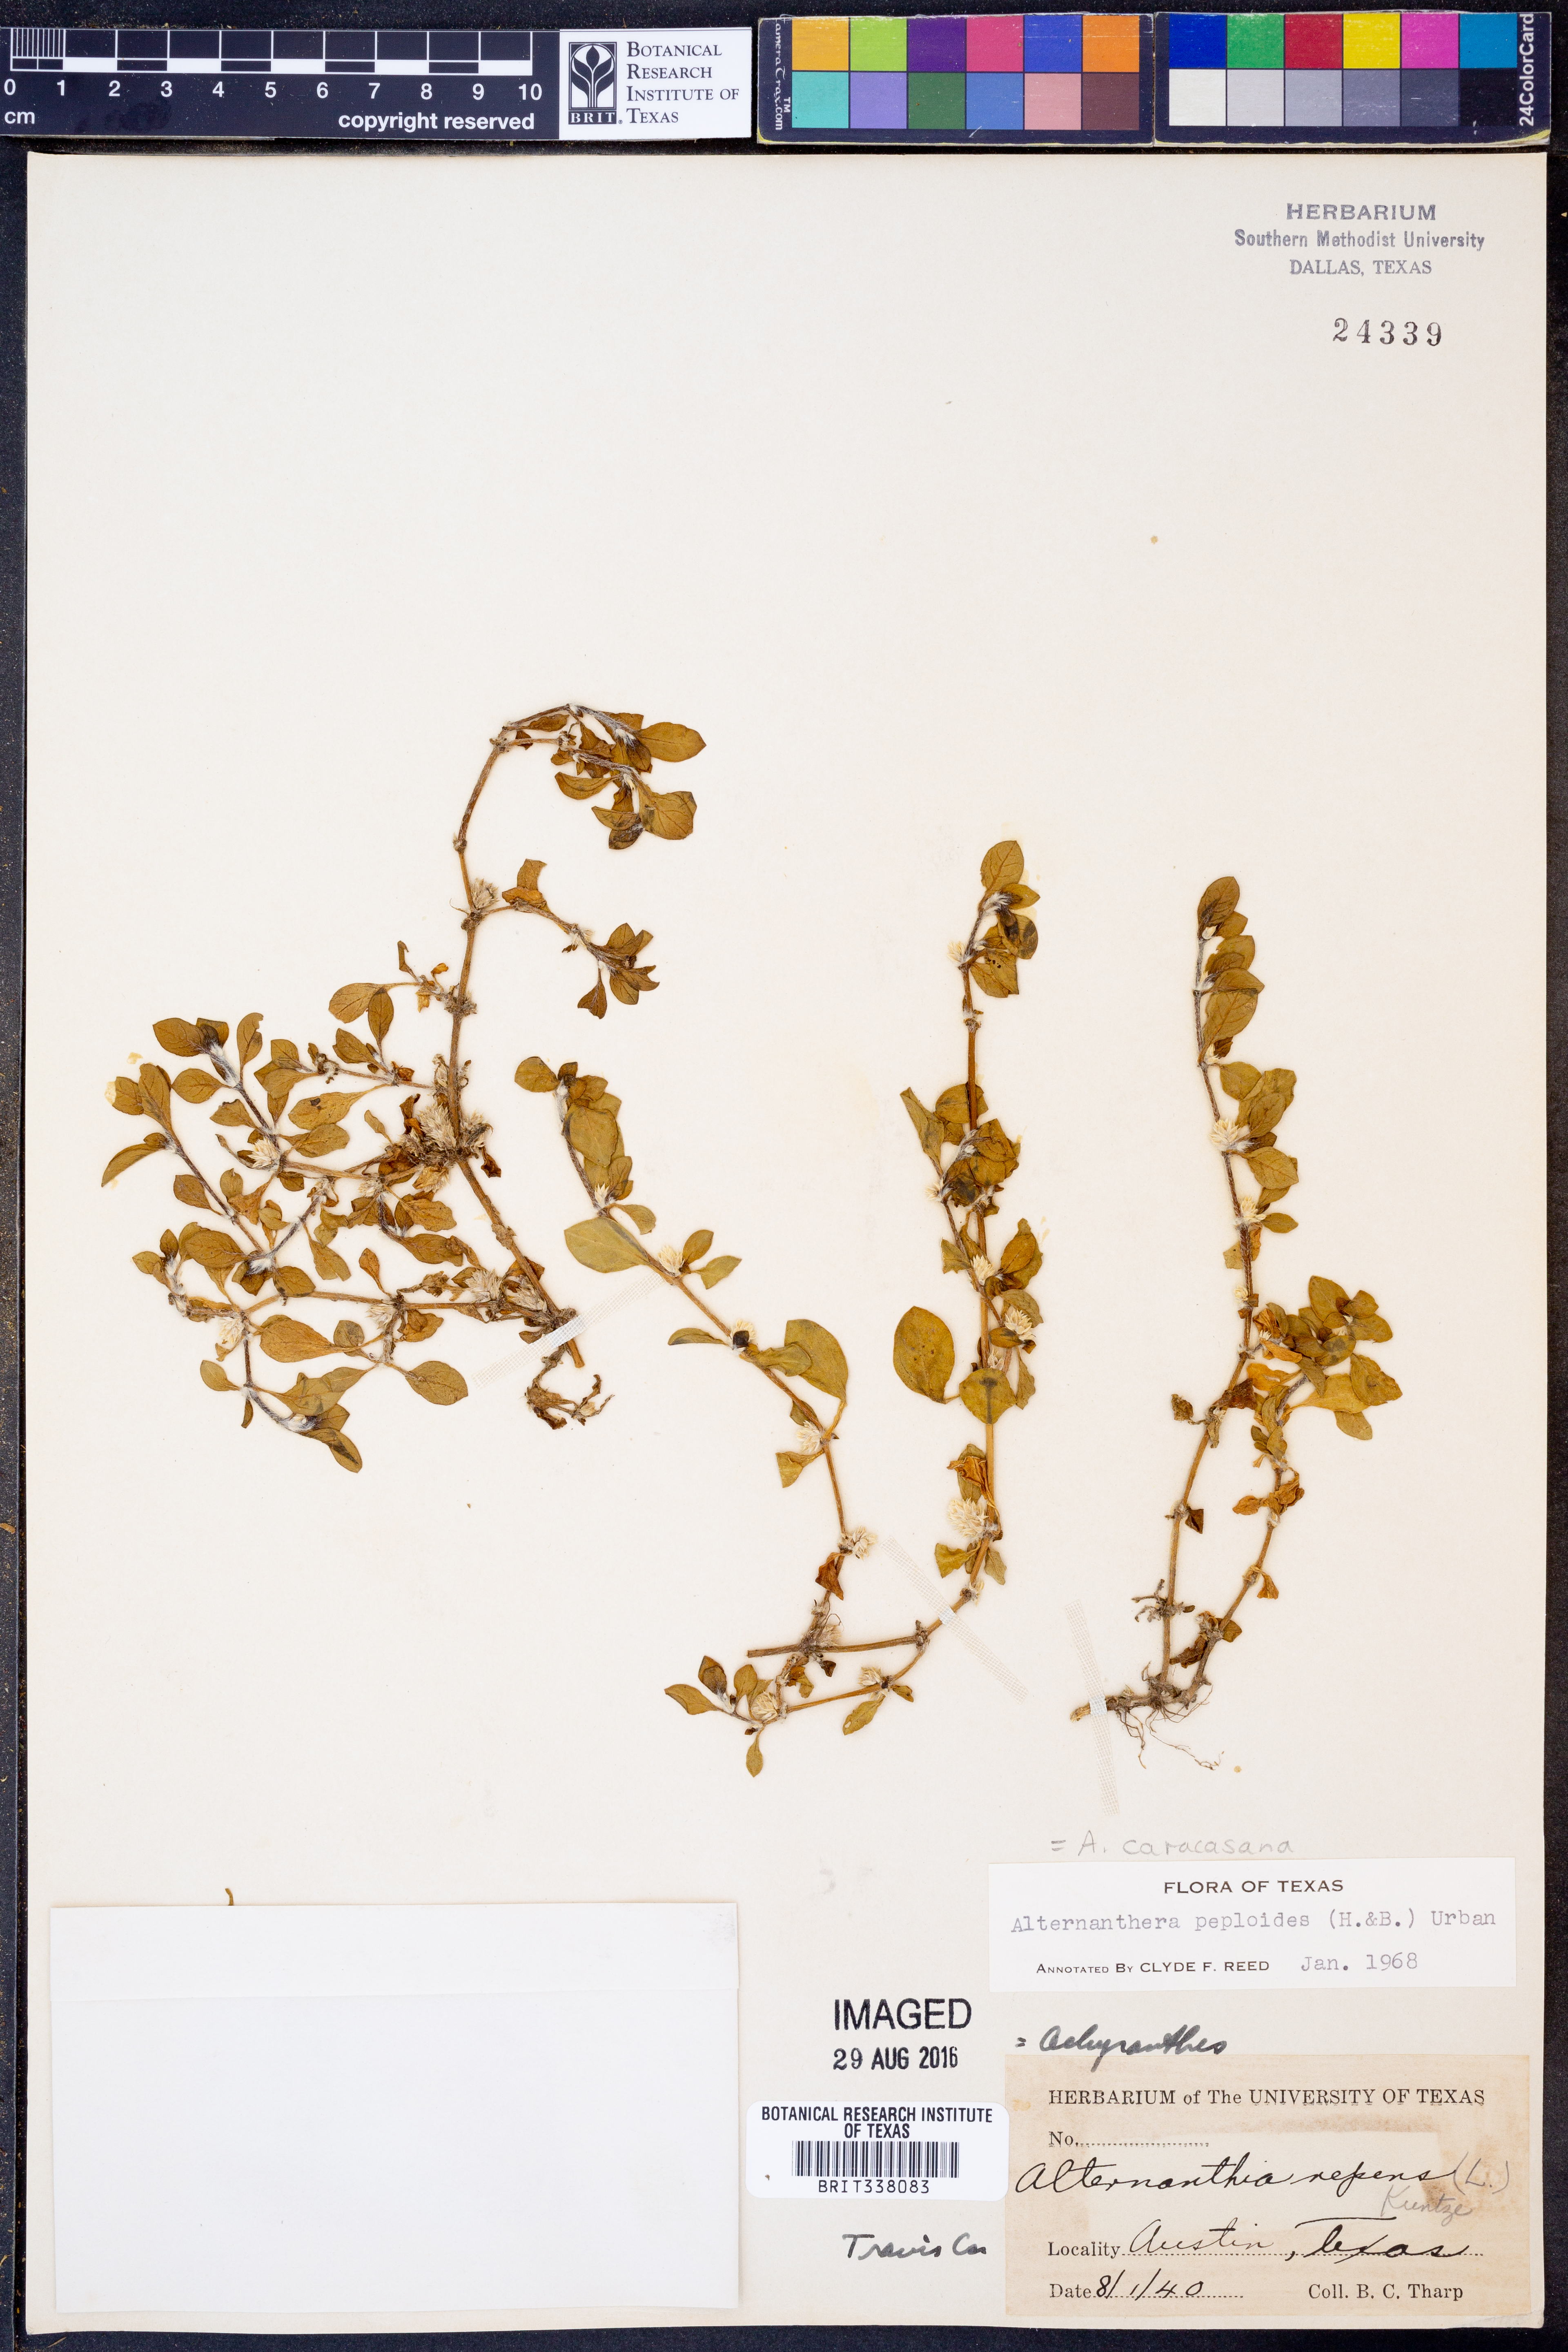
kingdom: Plantae
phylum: Tracheophyta
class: Magnoliopsida
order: Caryophyllales
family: Amaranthaceae
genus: Alternanthera
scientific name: Alternanthera caracasana
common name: Washerwoman
